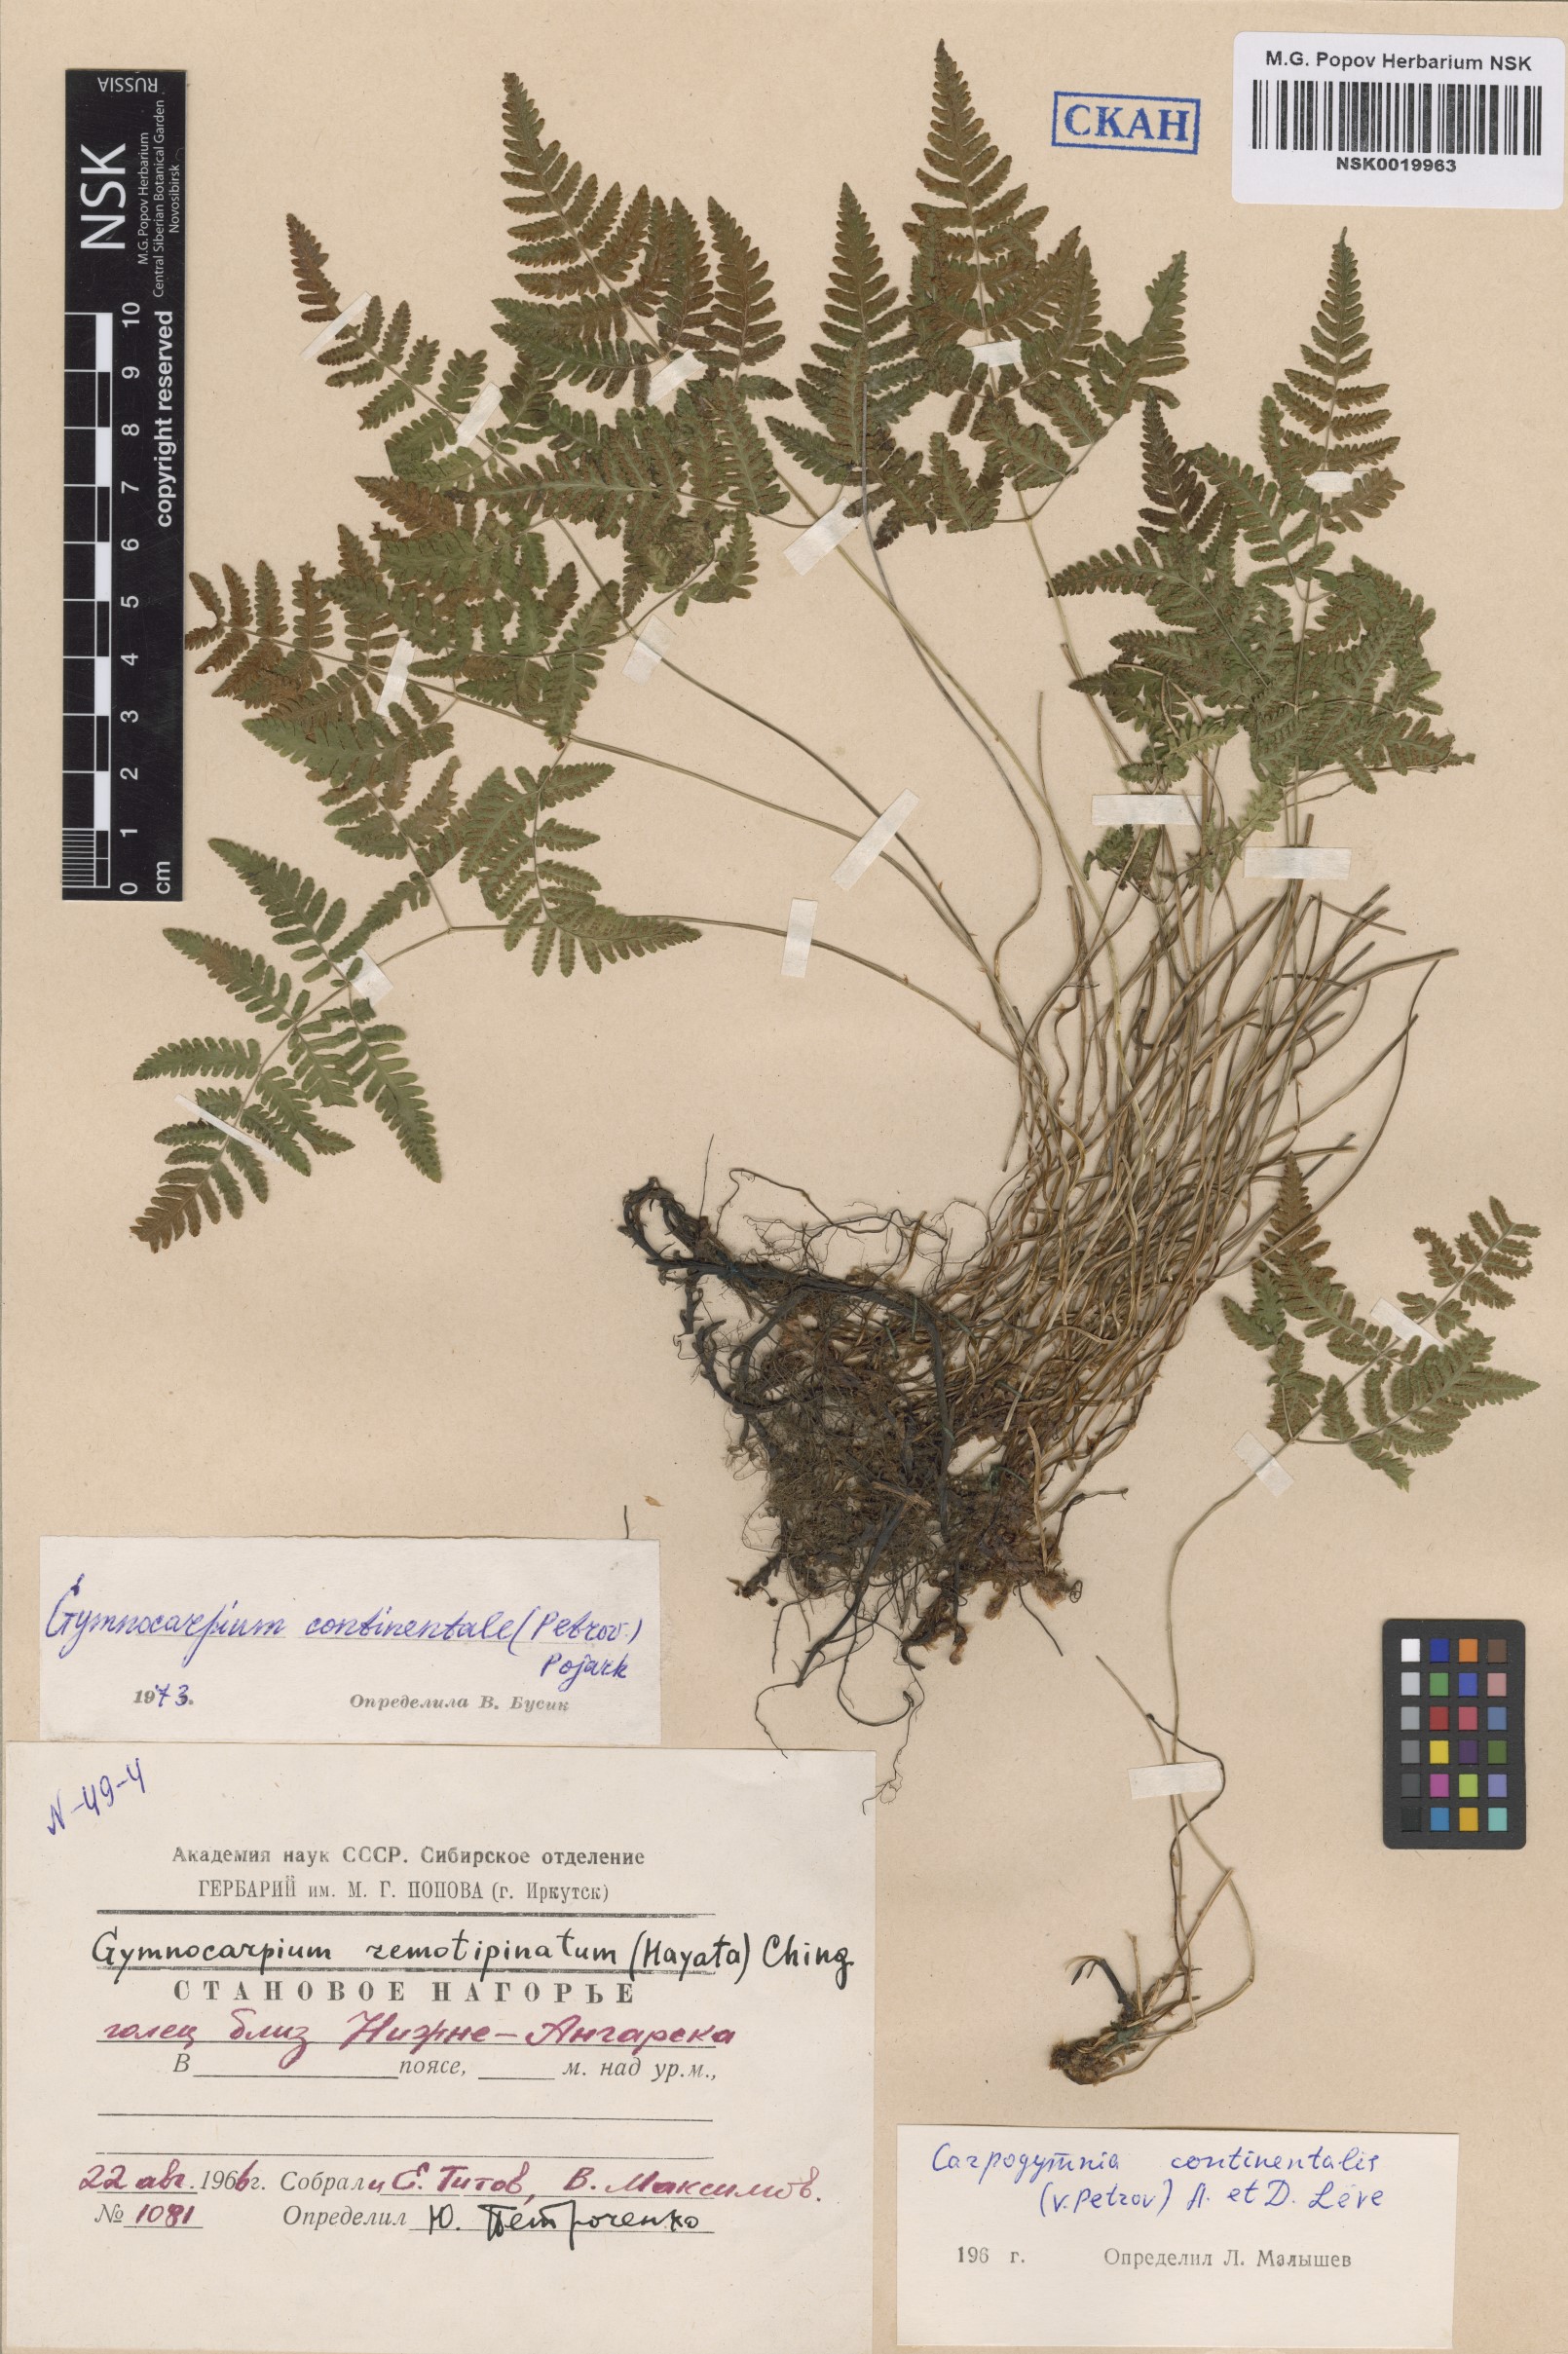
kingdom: Plantae
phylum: Tracheophyta
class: Polypodiopsida
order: Polypodiales
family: Cystopteridaceae
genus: Gymnocarpium
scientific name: Gymnocarpium continentale
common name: Asian oak fern
